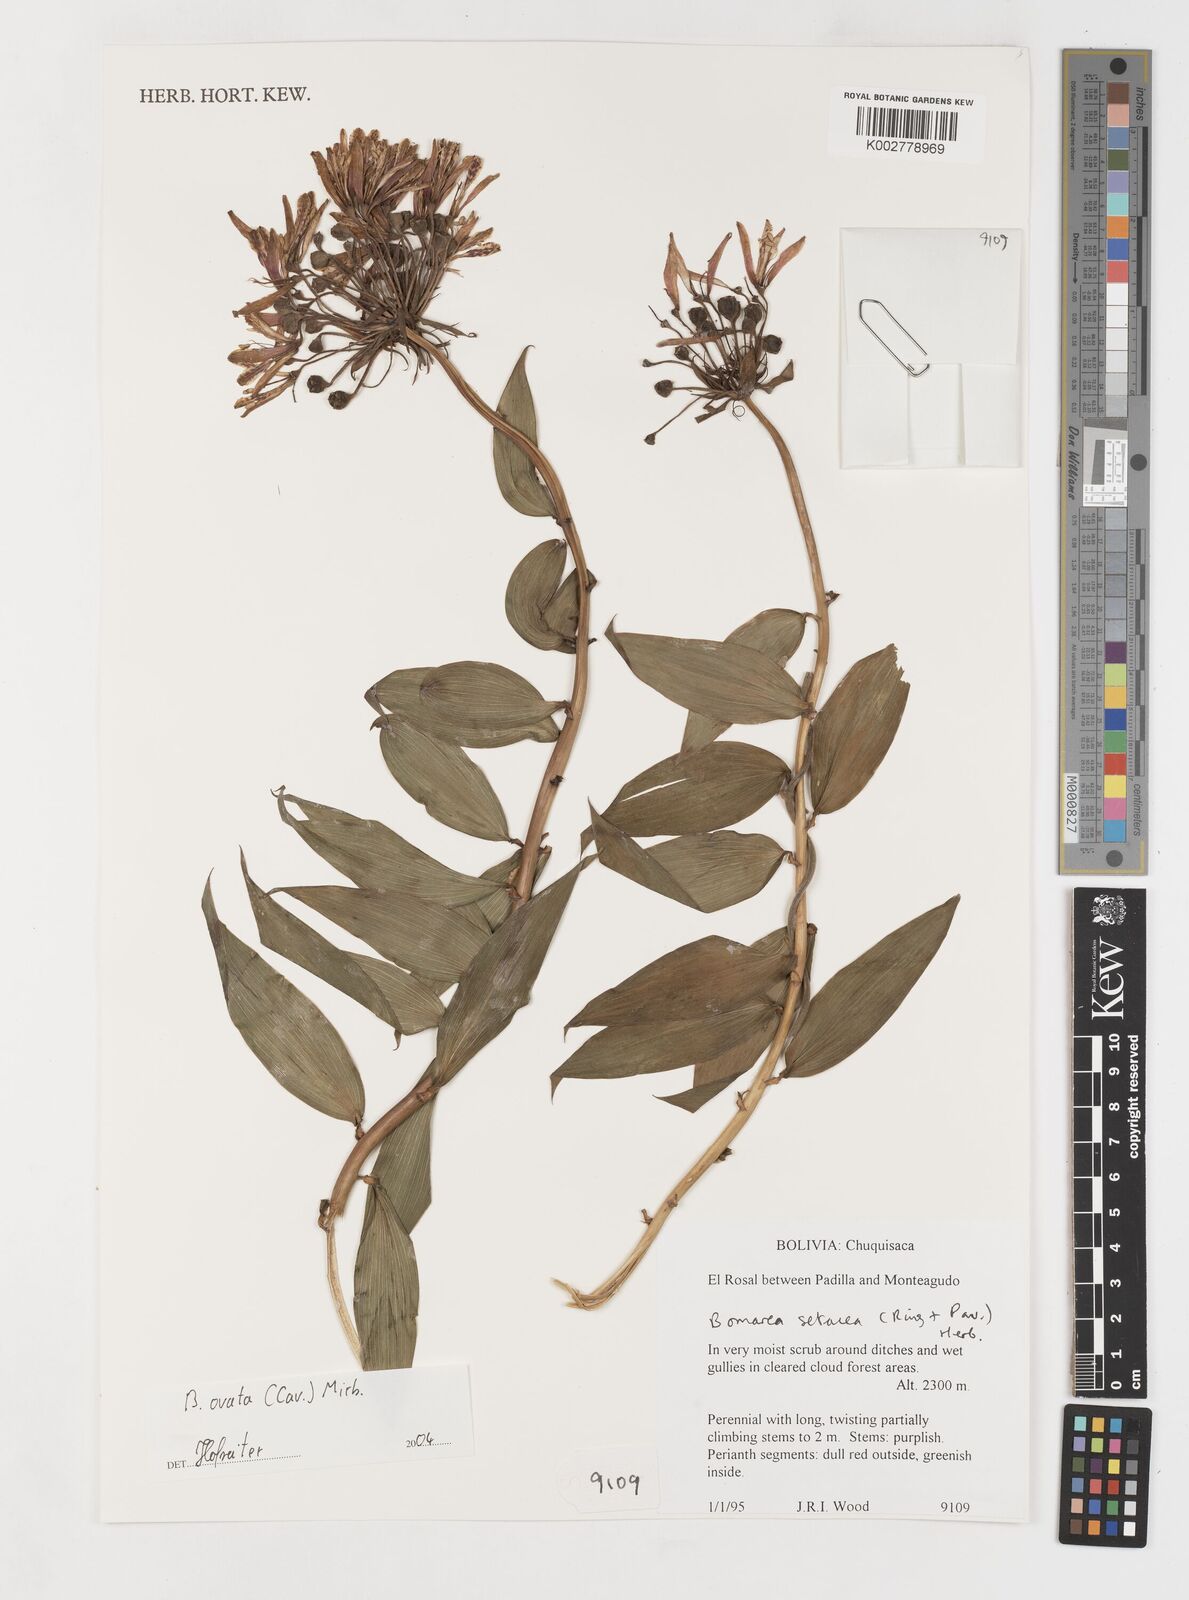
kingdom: Plantae
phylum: Tracheophyta
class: Liliopsida
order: Liliales
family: Alstroemeriaceae
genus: Bomarea
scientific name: Bomarea ovata
